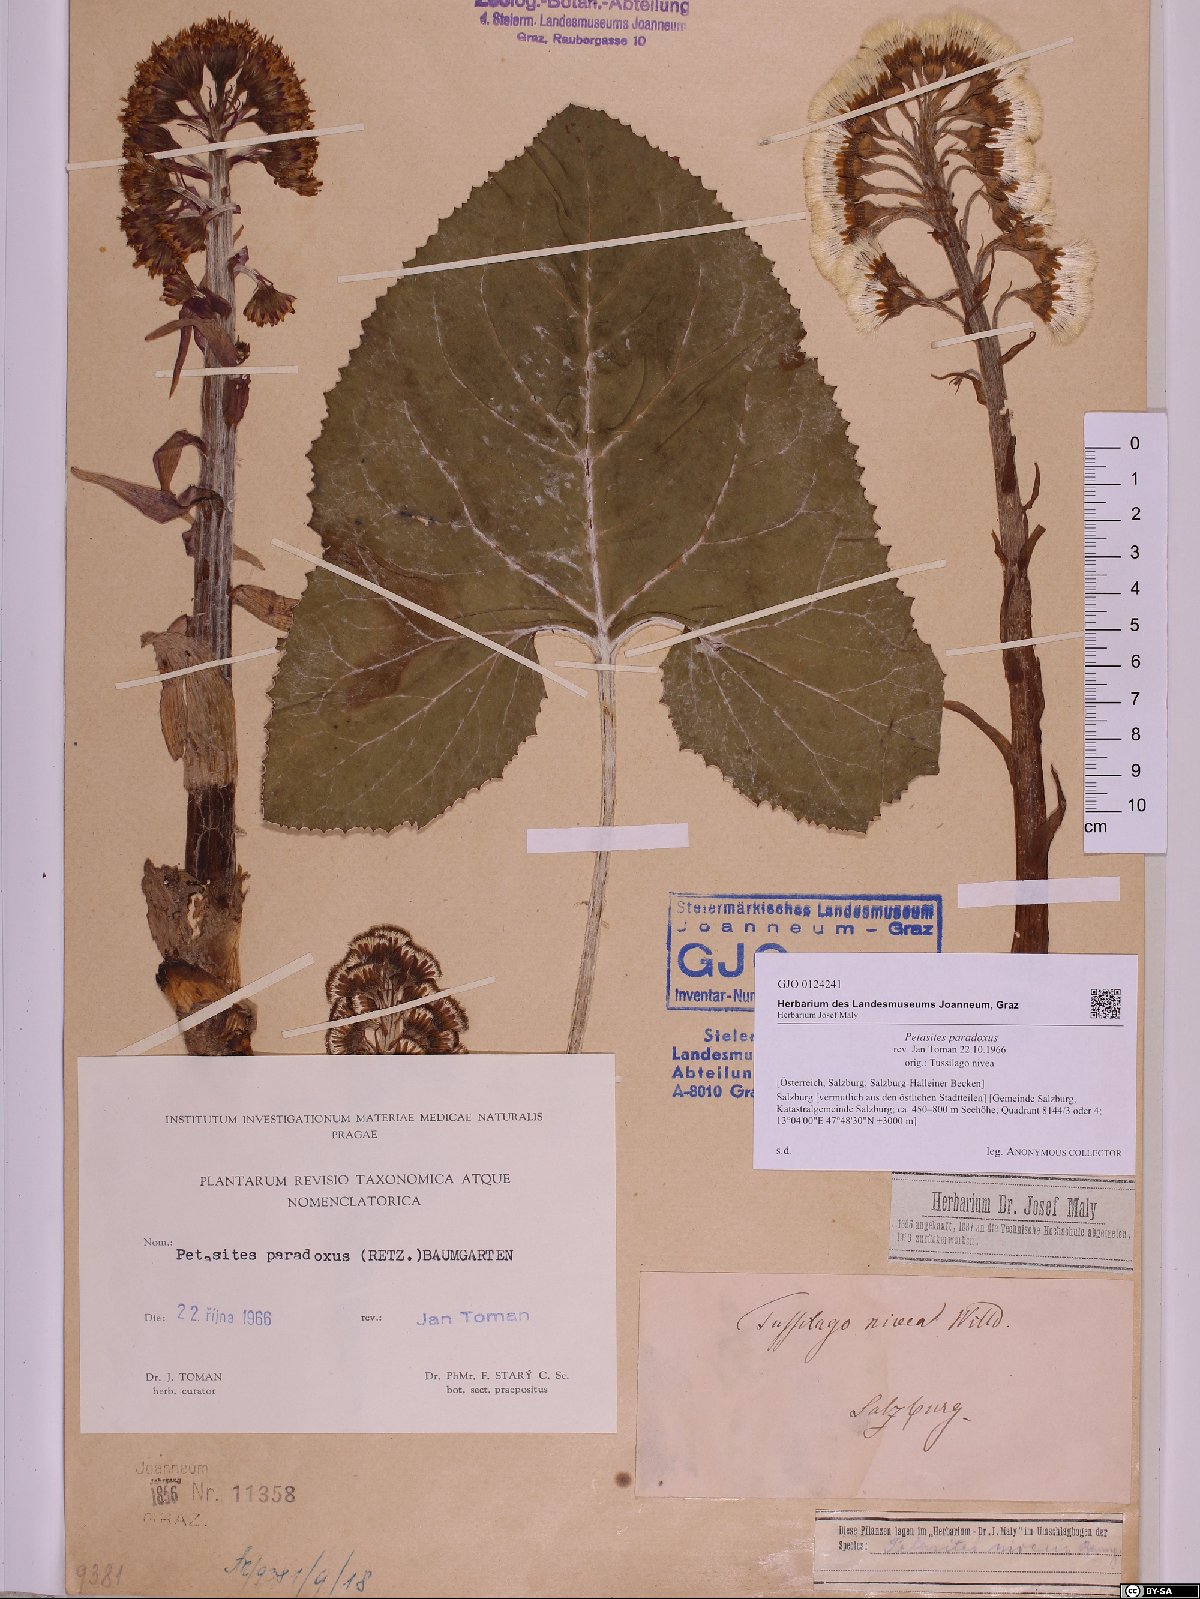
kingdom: Plantae
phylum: Tracheophyta
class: Magnoliopsida
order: Asterales
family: Asteraceae
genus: Petasites
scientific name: Petasites paradoxus
